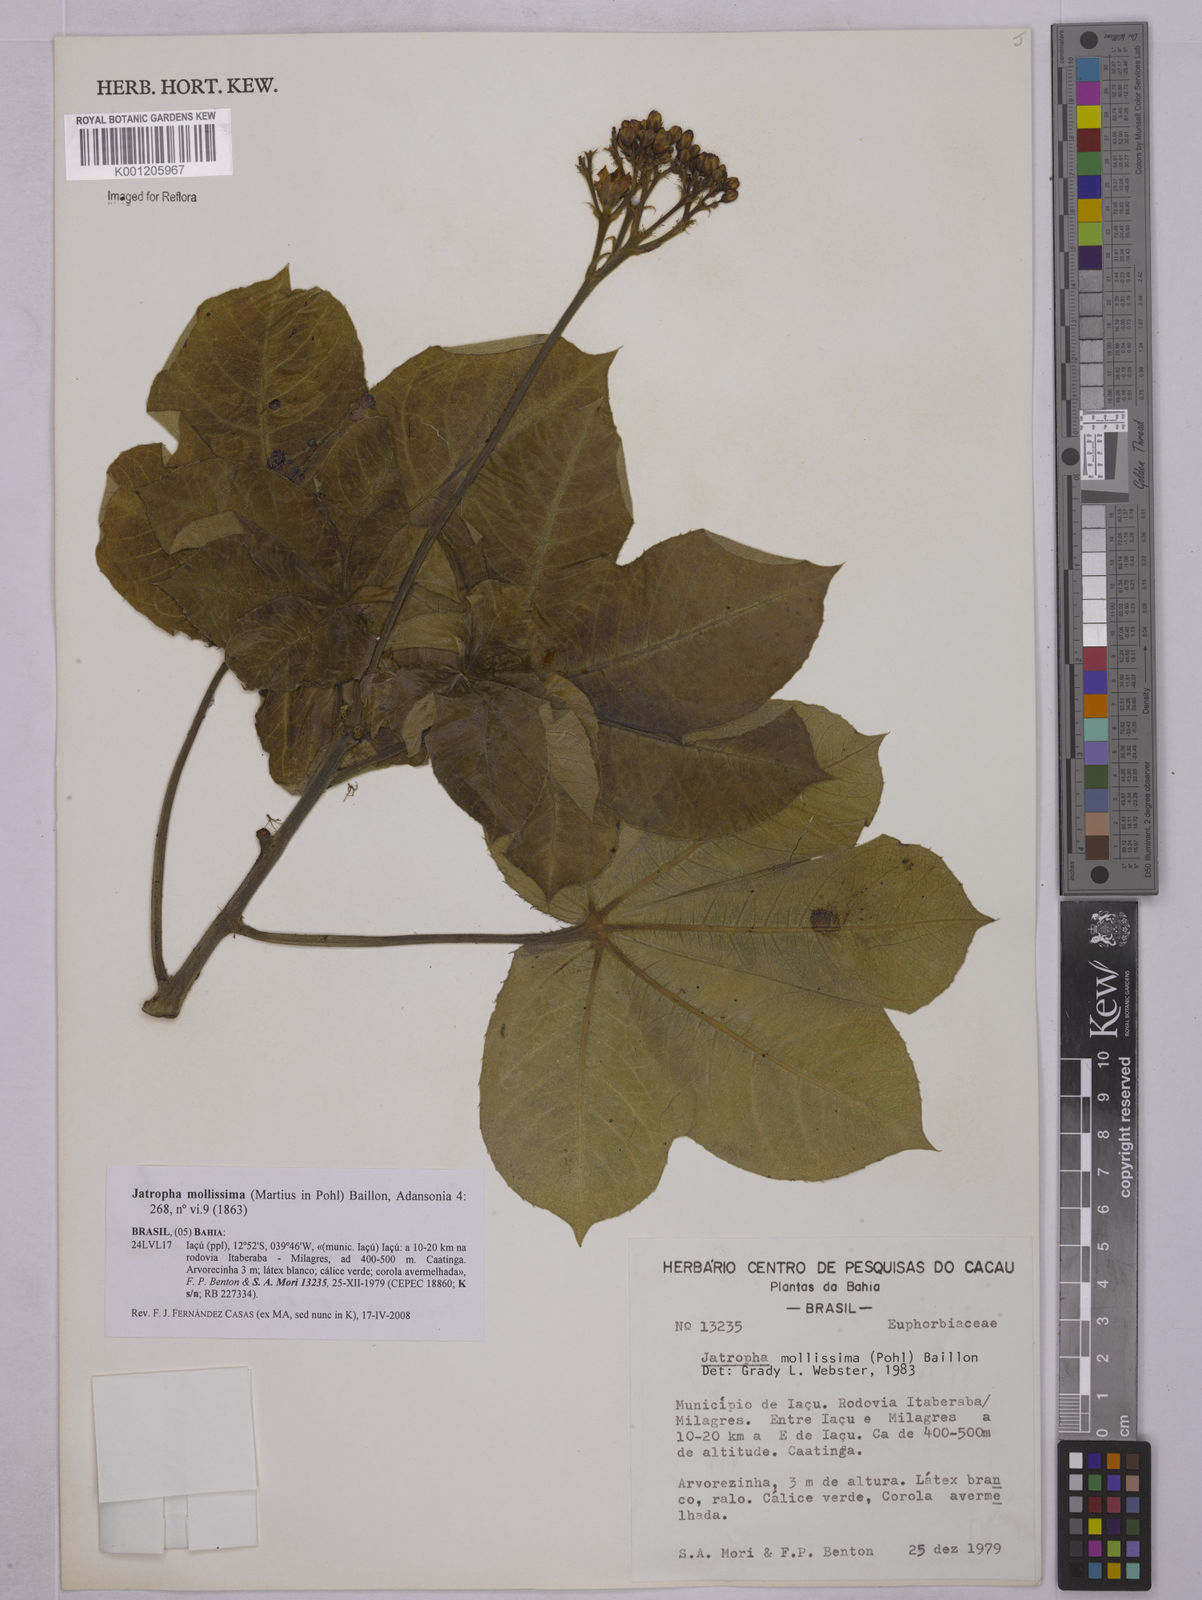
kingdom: Plantae
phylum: Tracheophyta
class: Magnoliopsida
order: Malpighiales
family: Euphorbiaceae
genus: Jatropha
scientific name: Jatropha mollissima
